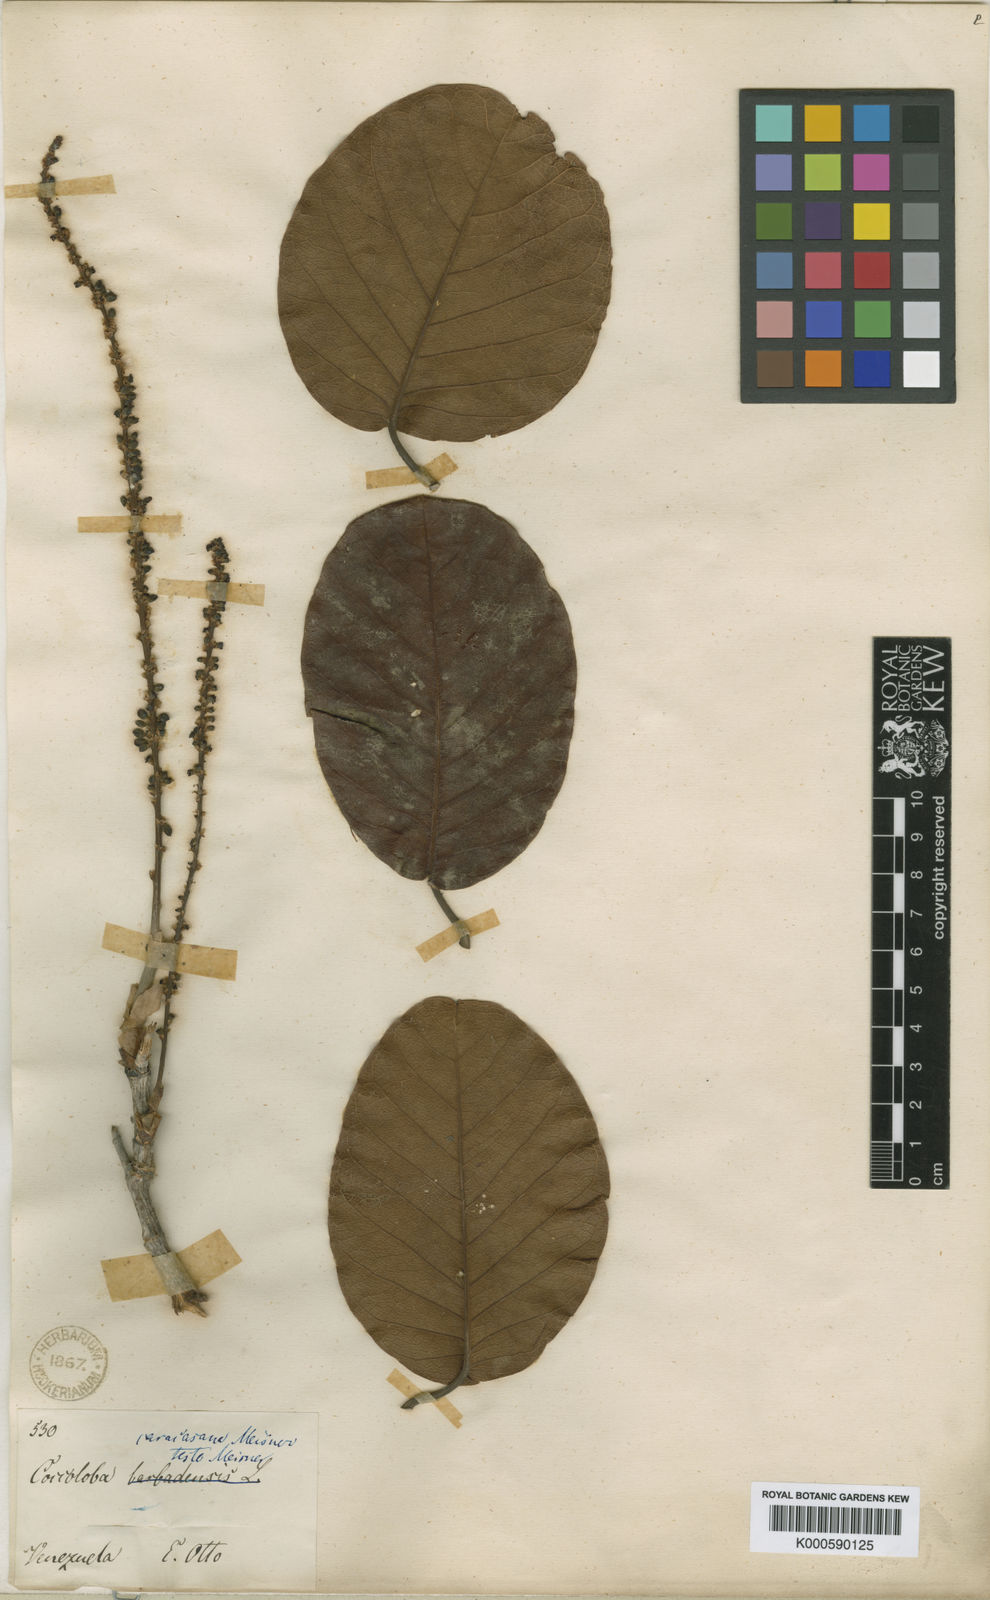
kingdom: Plantae
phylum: Tracheophyta
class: Magnoliopsida
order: Caryophyllales
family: Polygonaceae
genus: Coccoloba
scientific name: Coccoloba caracasana
